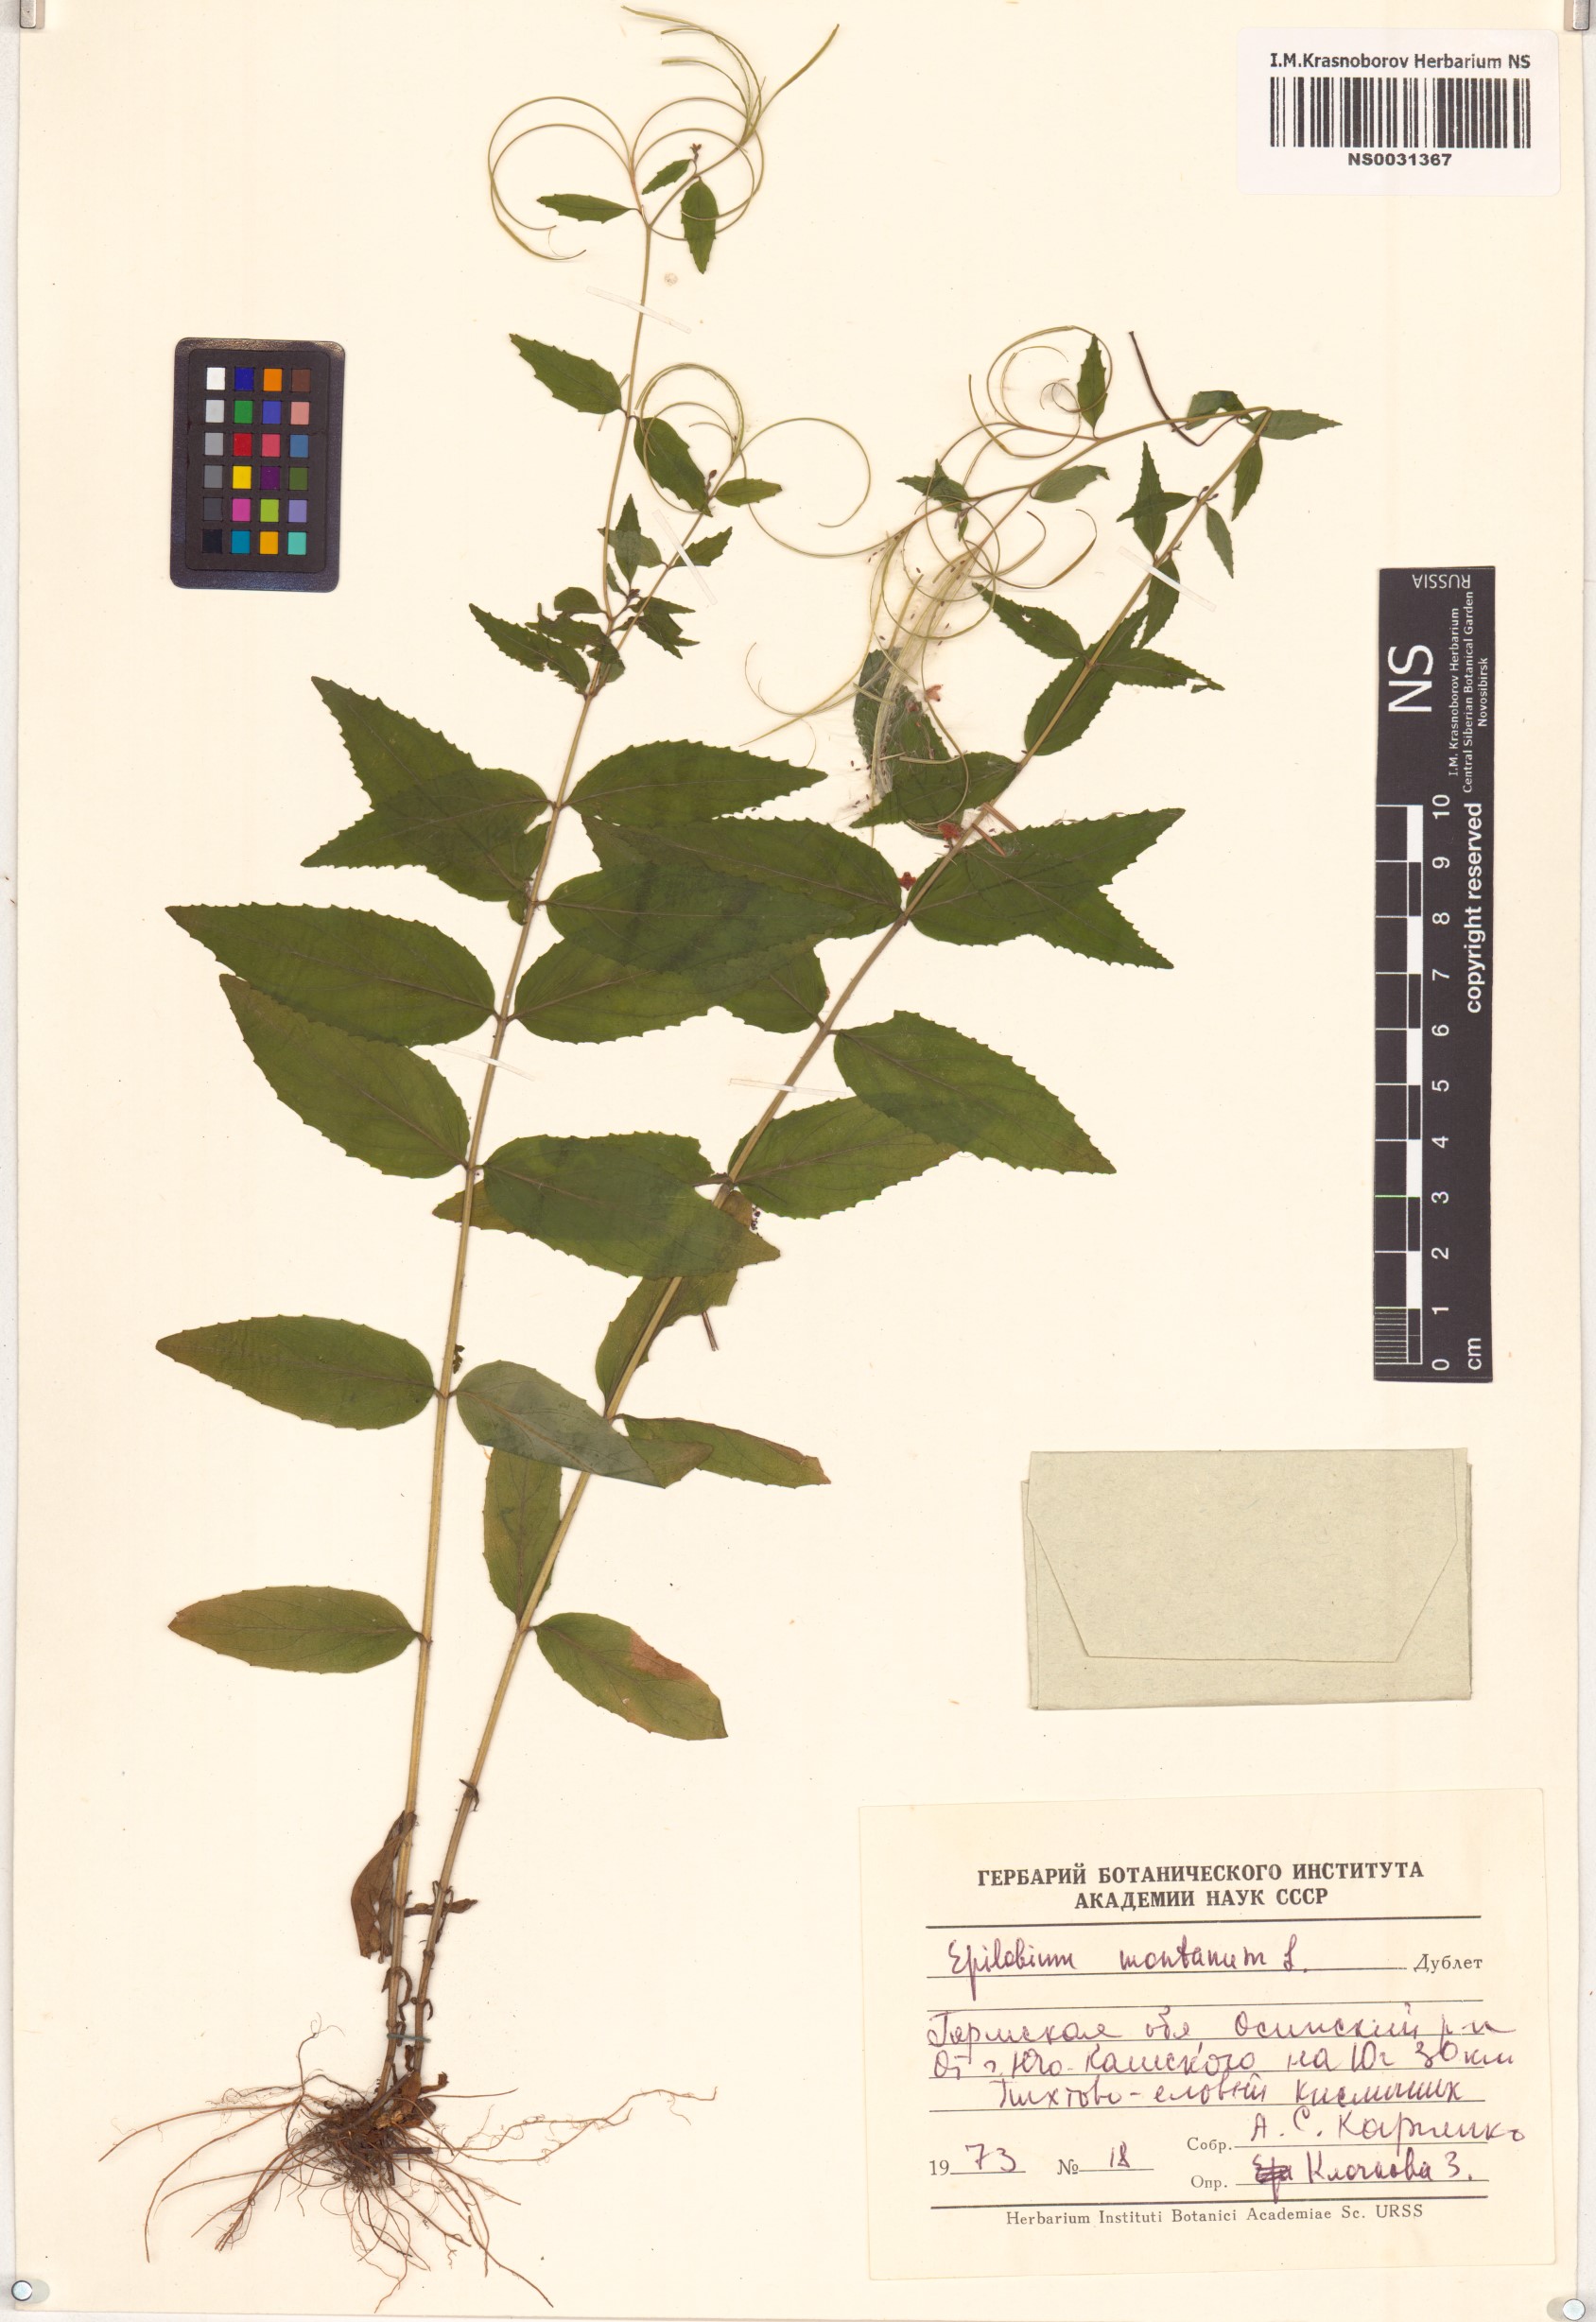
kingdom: Plantae
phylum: Tracheophyta
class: Magnoliopsida
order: Myrtales
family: Onagraceae
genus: Epilobium
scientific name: Epilobium montanum
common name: Broad-leaved willowherb
